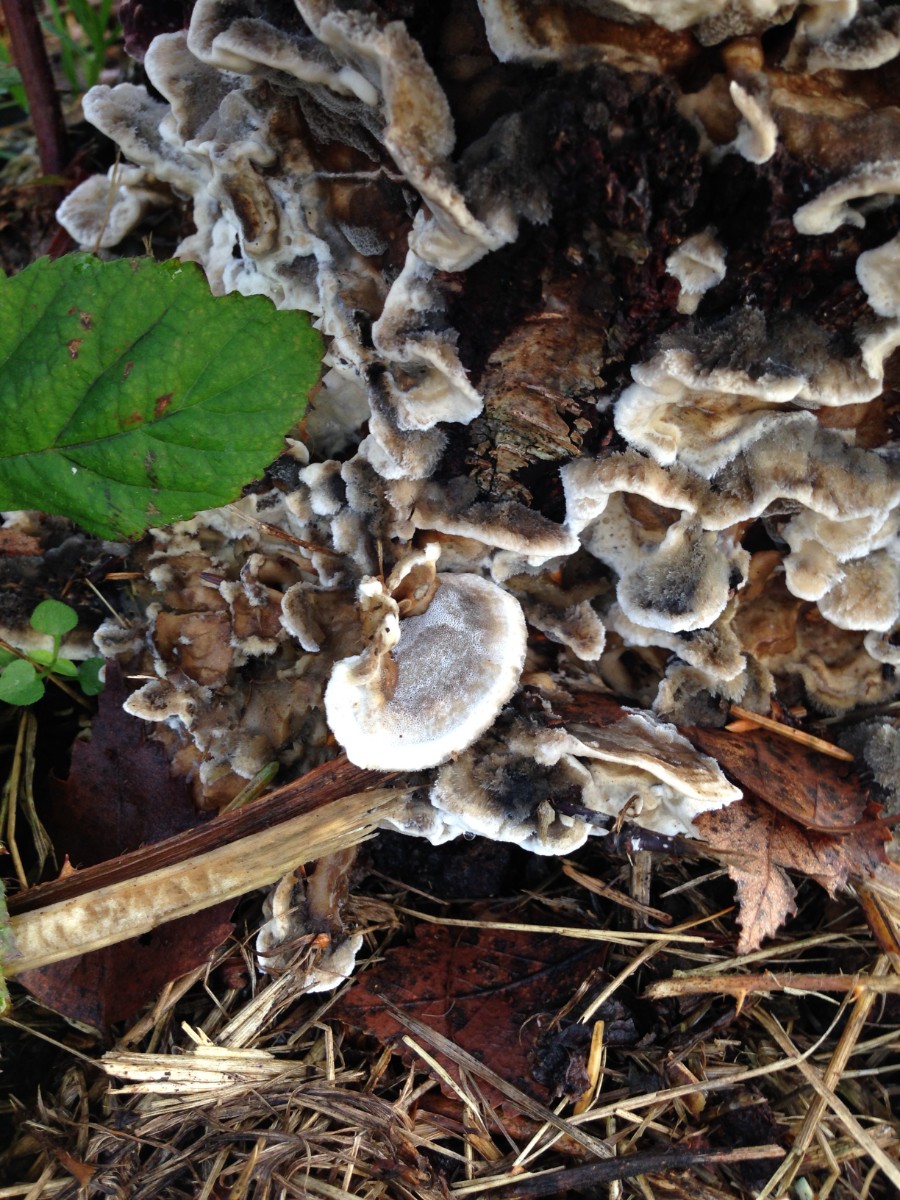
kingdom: Fungi
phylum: Basidiomycota
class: Agaricomycetes
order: Polyporales
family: Phanerochaetaceae
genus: Bjerkandera
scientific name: Bjerkandera adusta
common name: sveden sodporesvamp
